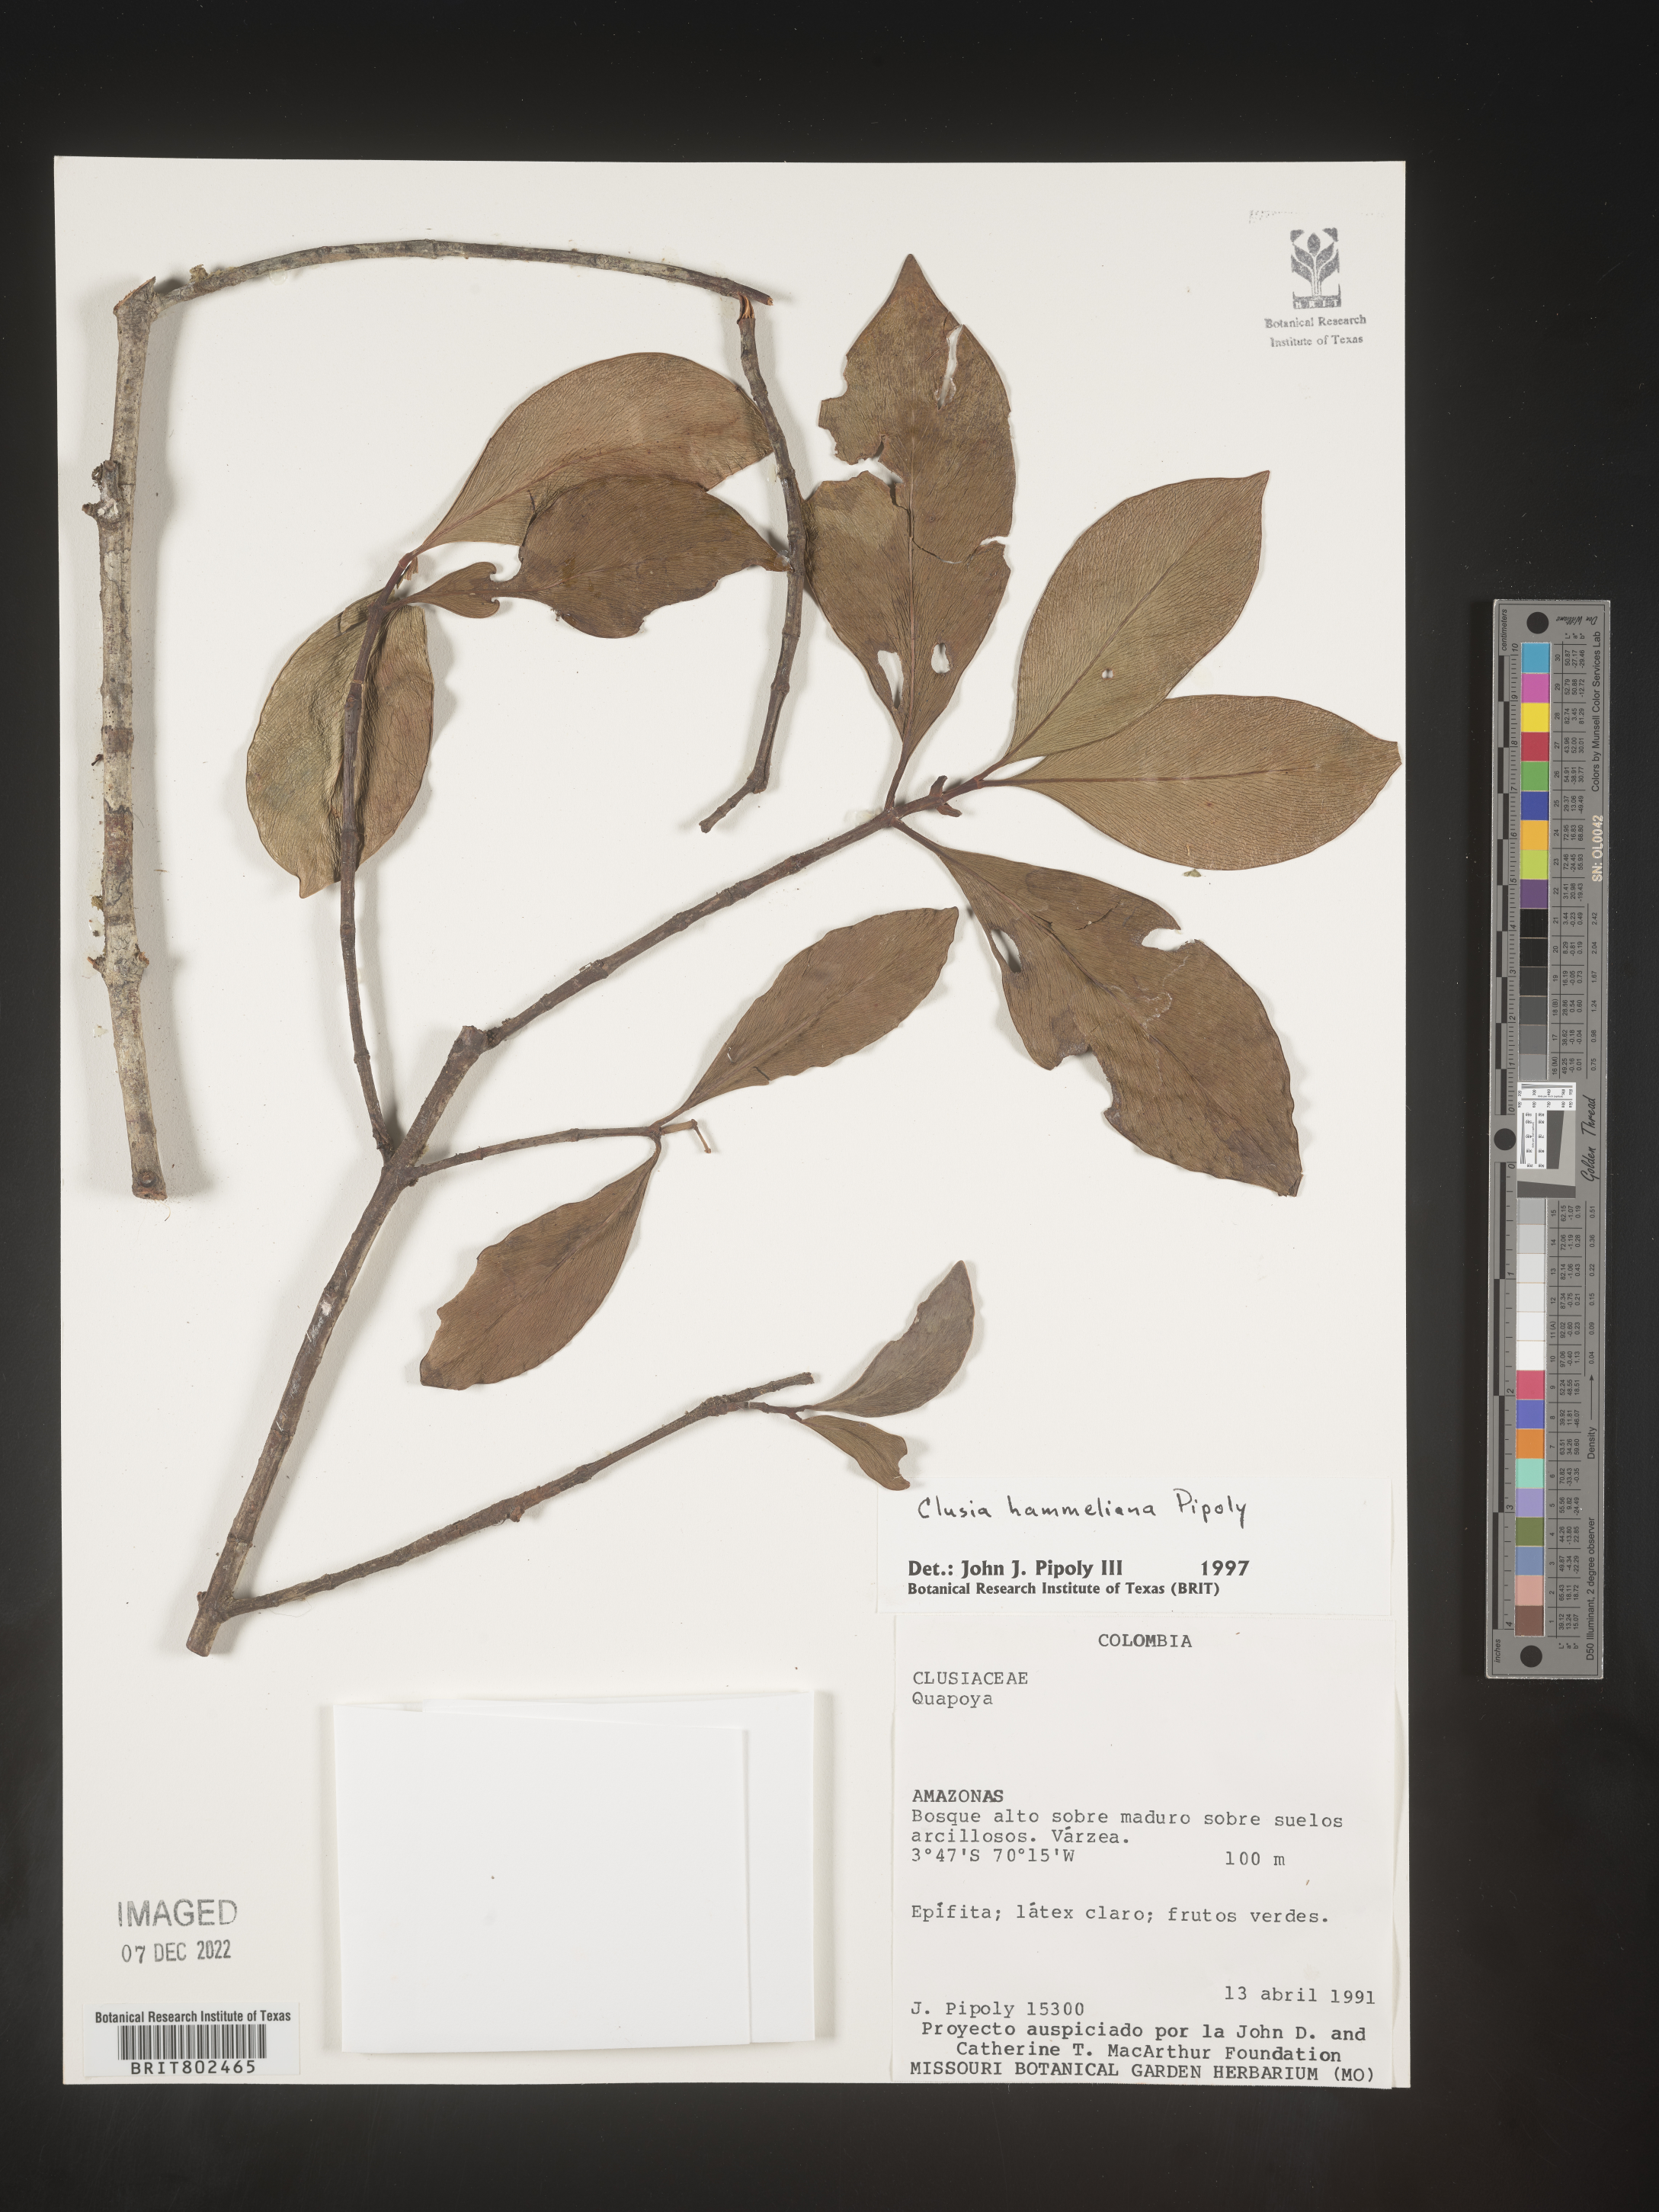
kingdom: Plantae
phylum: Tracheophyta
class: Magnoliopsida
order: Malpighiales
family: Clusiaceae
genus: Clusia
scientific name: Clusia hammeliana
